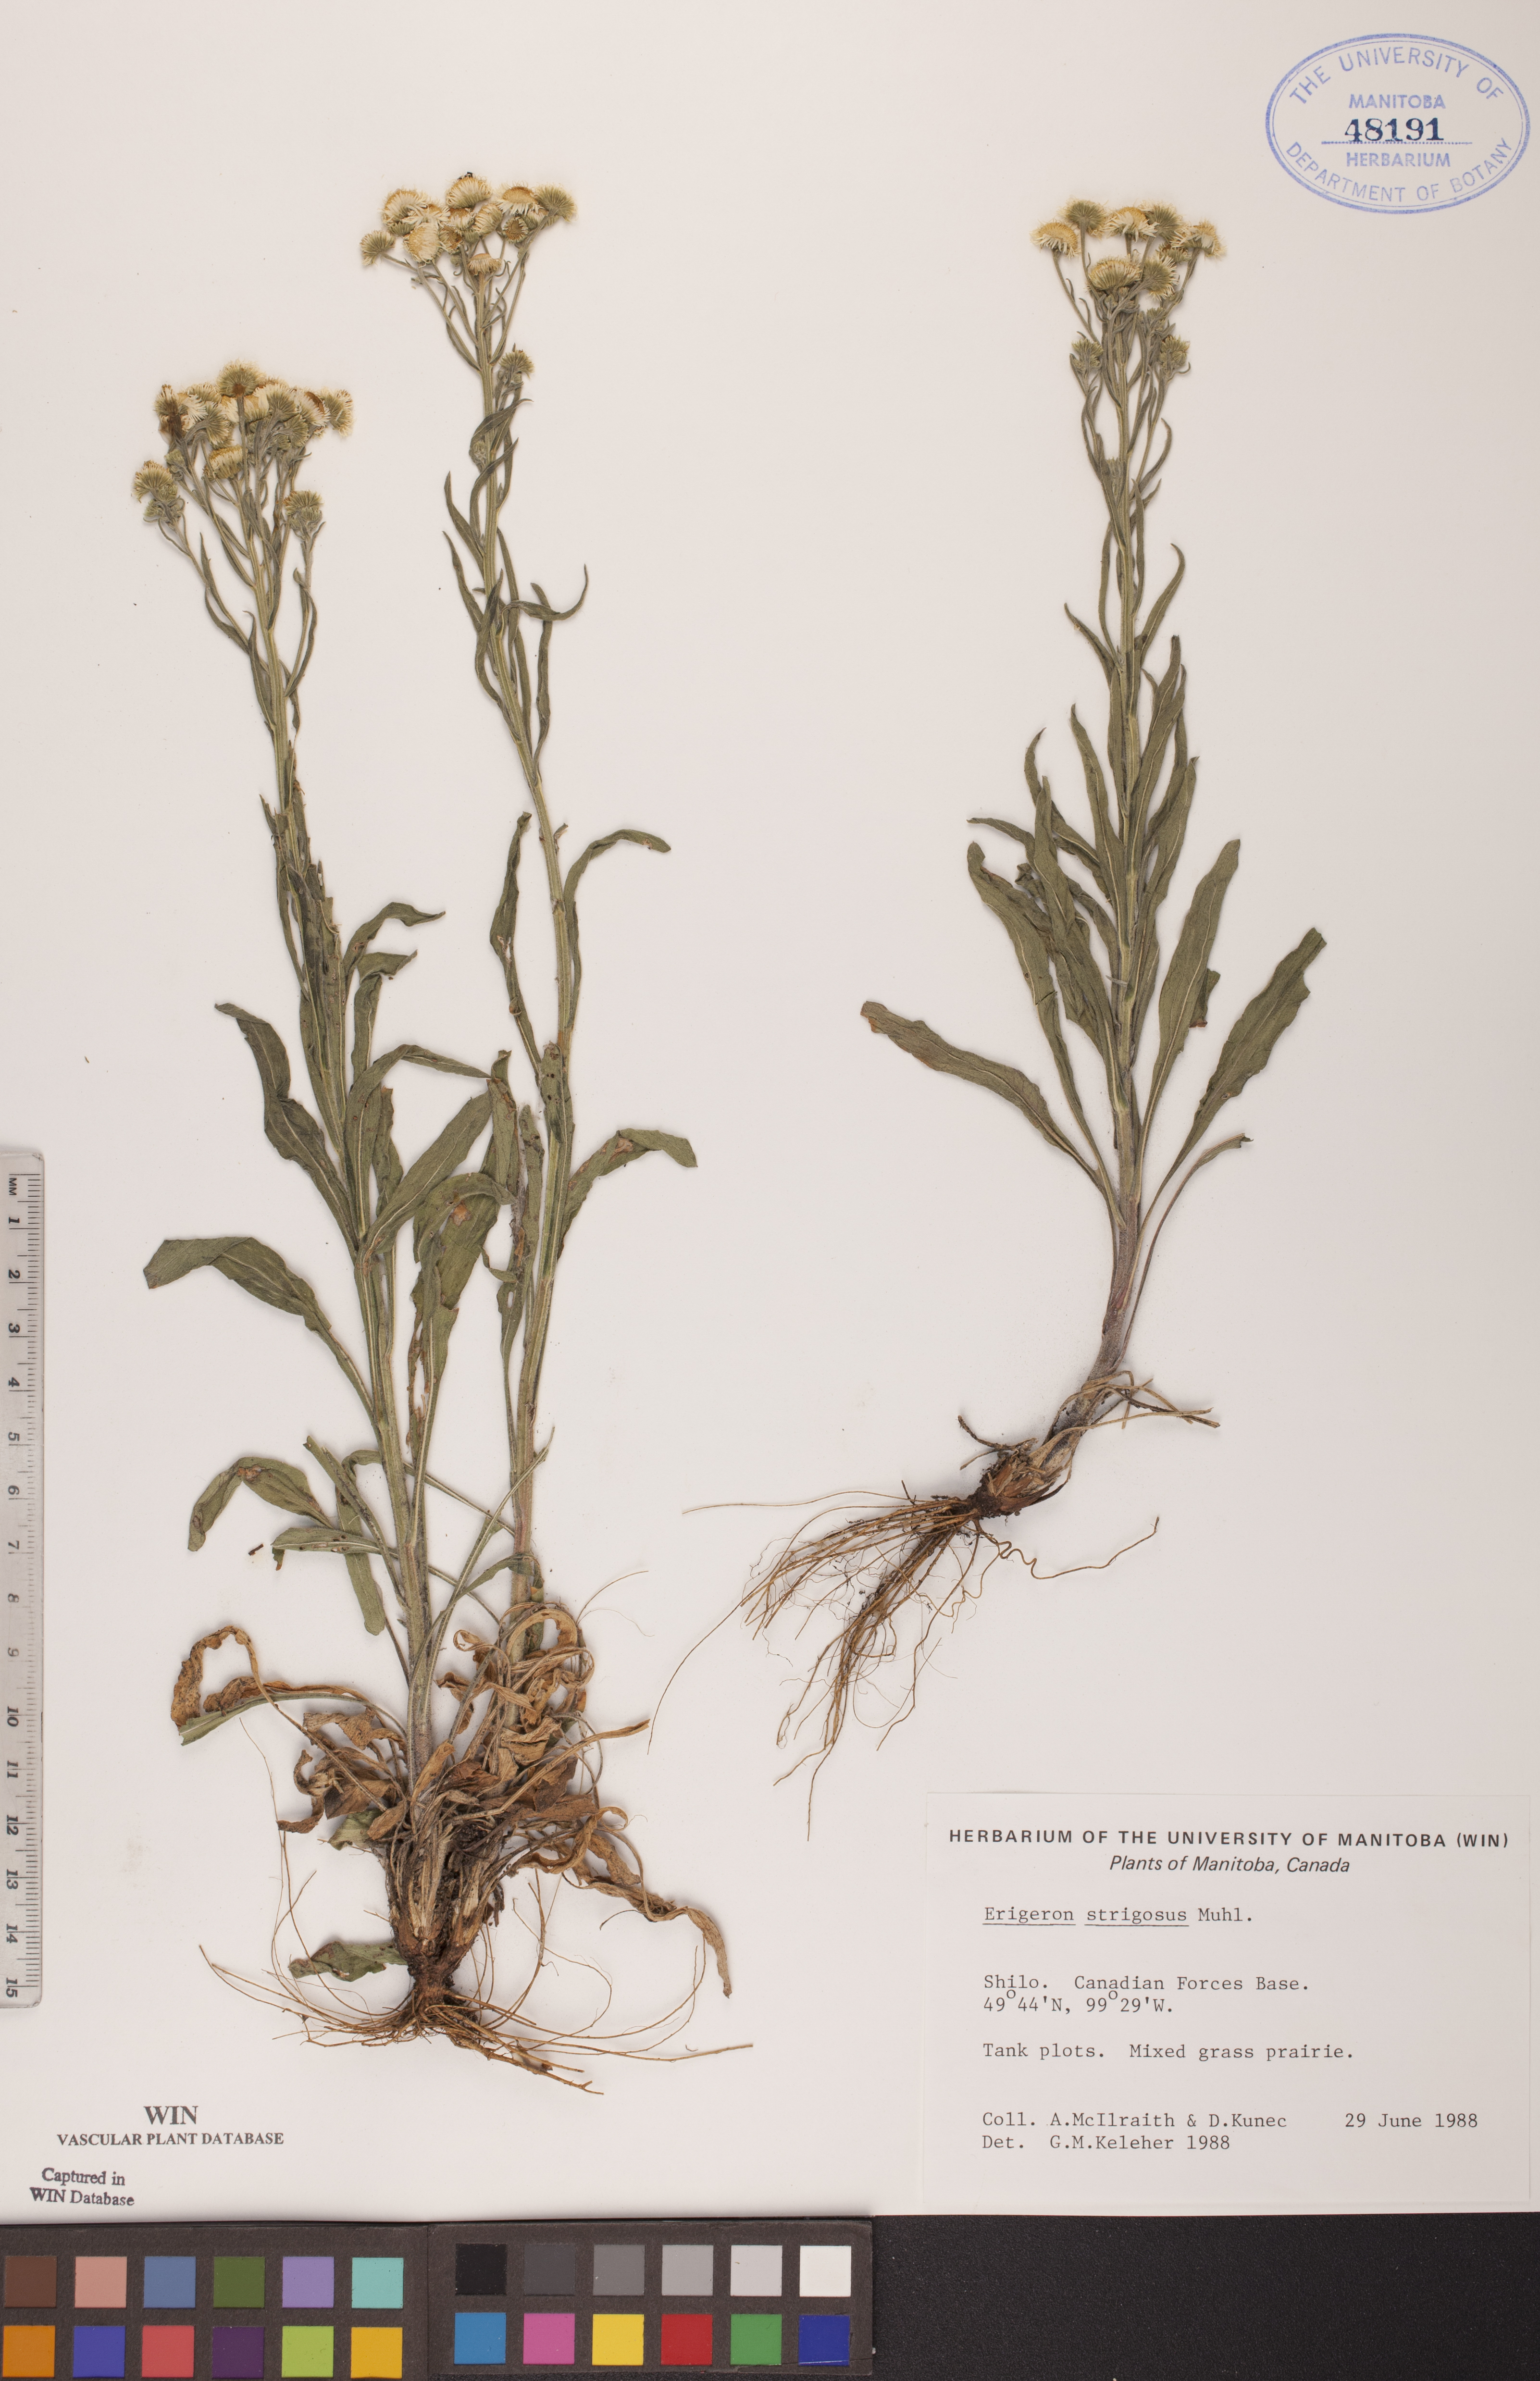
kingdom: Plantae
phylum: Tracheophyta
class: Magnoliopsida
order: Asterales
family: Asteraceae
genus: Erigeron
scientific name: Erigeron strigosus
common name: Common eastern fleabane
